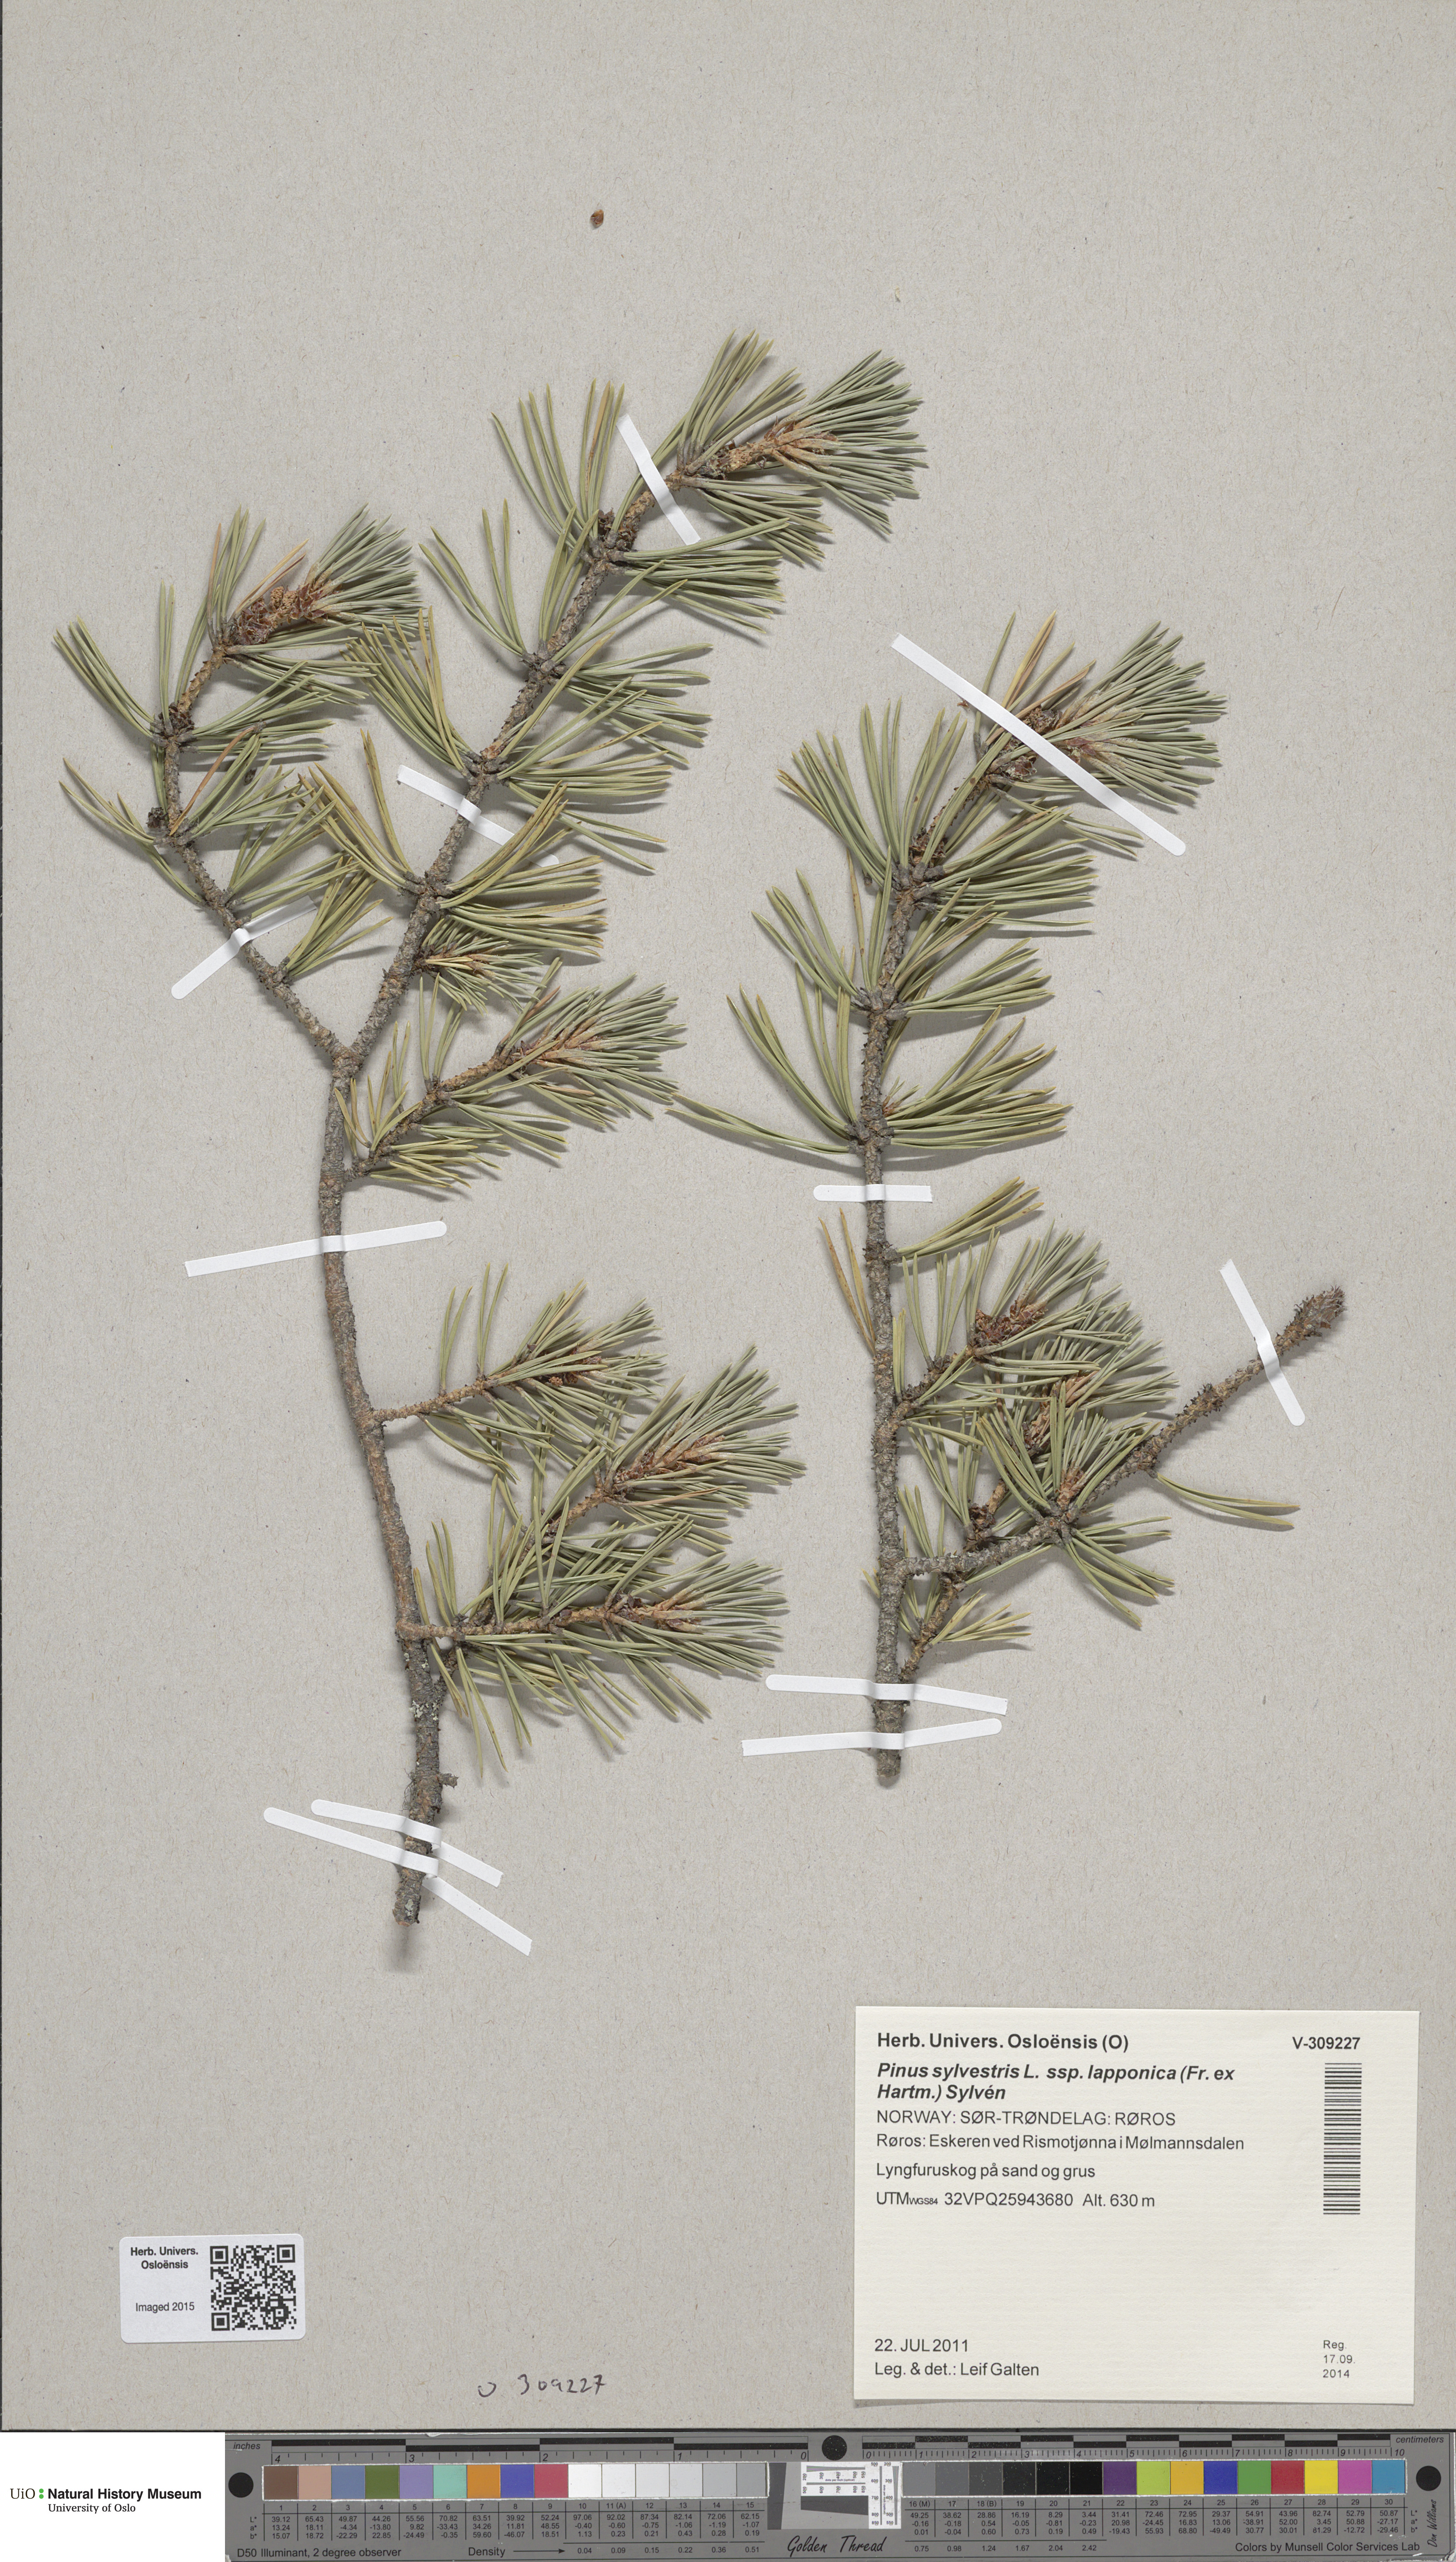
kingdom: Plantae
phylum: Tracheophyta
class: Pinopsida
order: Pinales
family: Pinaceae
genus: Pinus
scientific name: Pinus sylvestris
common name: Scots pine
